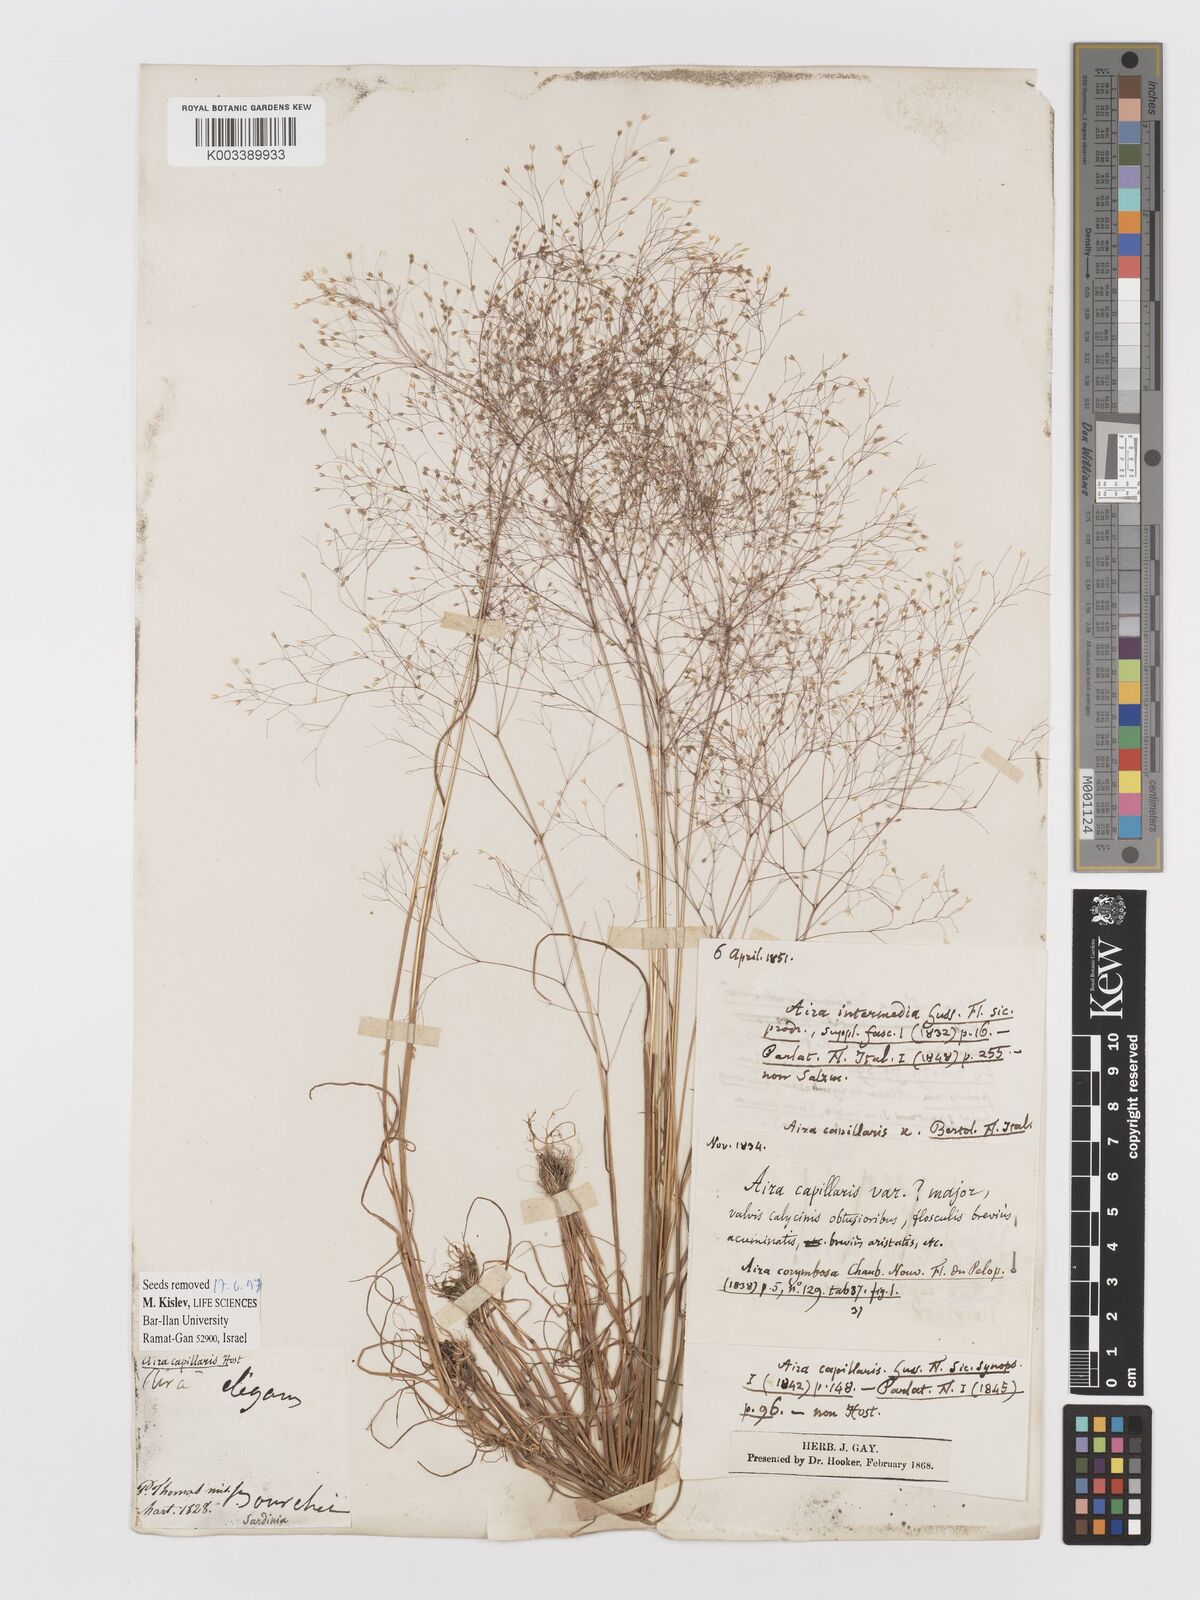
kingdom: Plantae
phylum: Tracheophyta
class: Liliopsida
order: Poales
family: Poaceae
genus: Aira
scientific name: Aira
